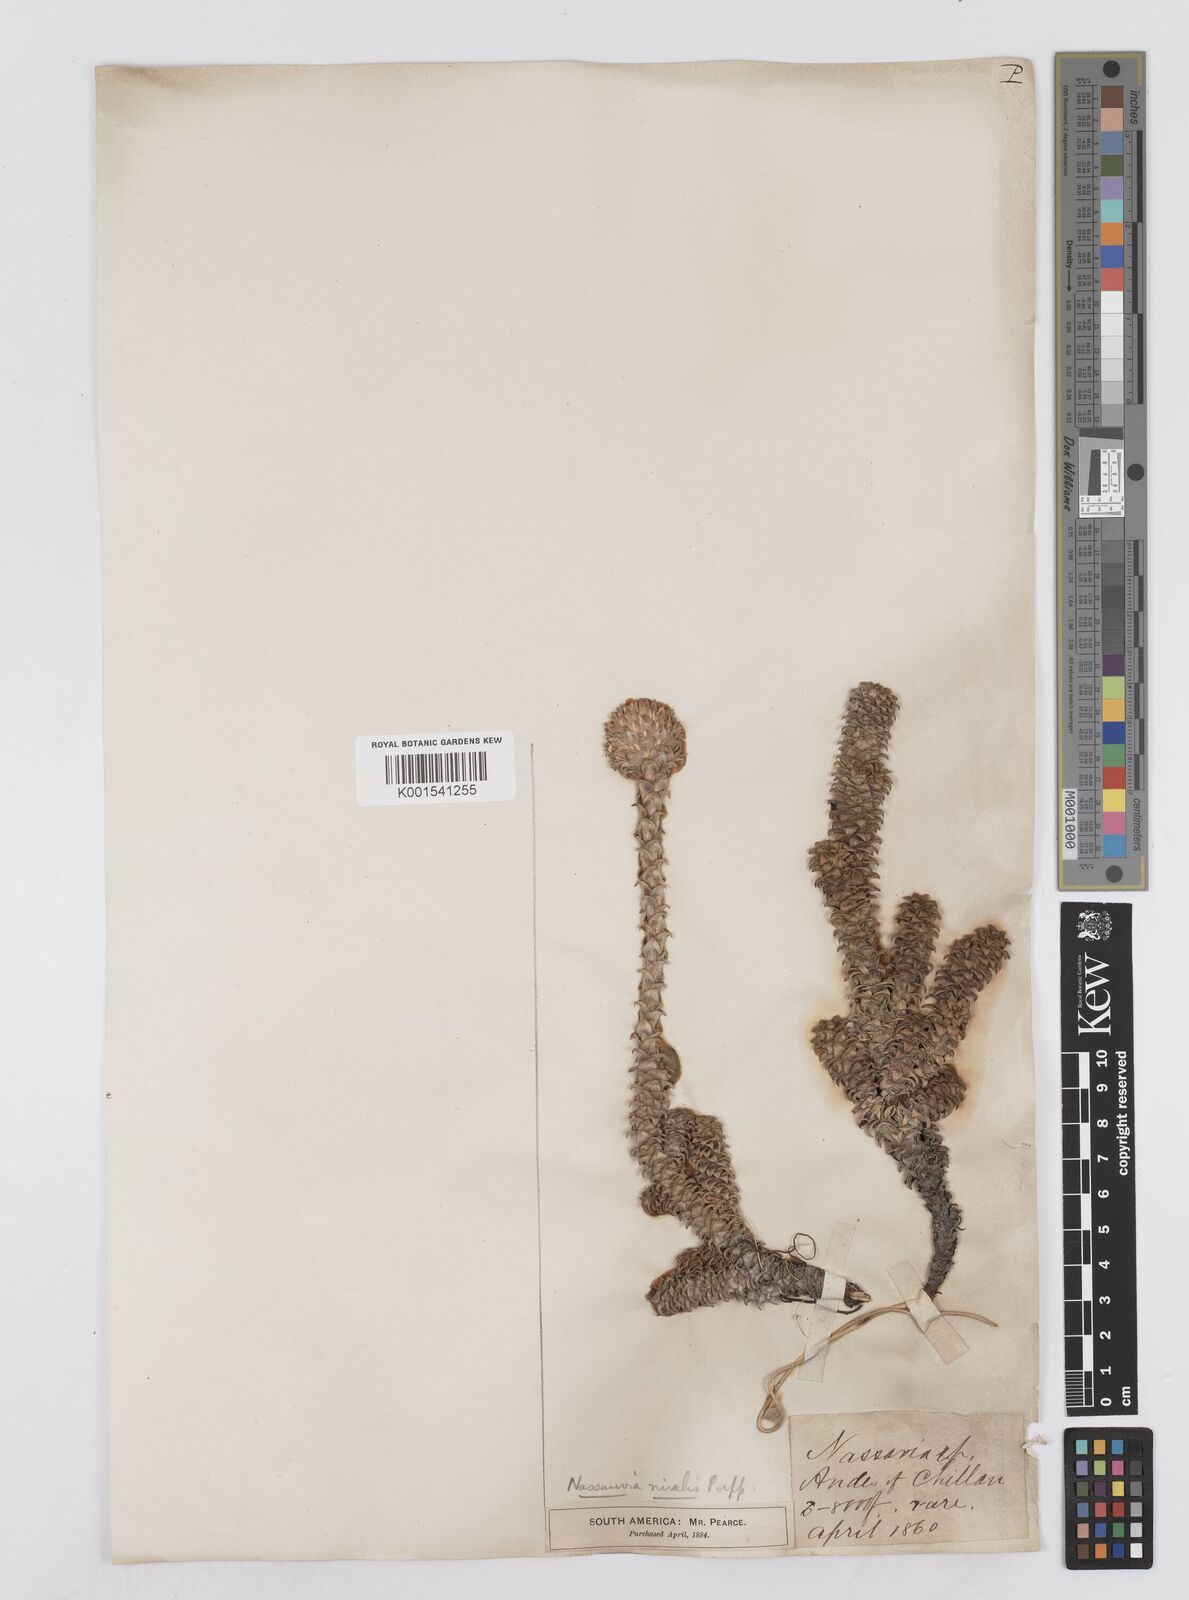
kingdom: Plantae
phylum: Tracheophyta
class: Magnoliopsida
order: Asterales
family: Asteraceae
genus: Nassauvia
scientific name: Nassauvia revoluta
